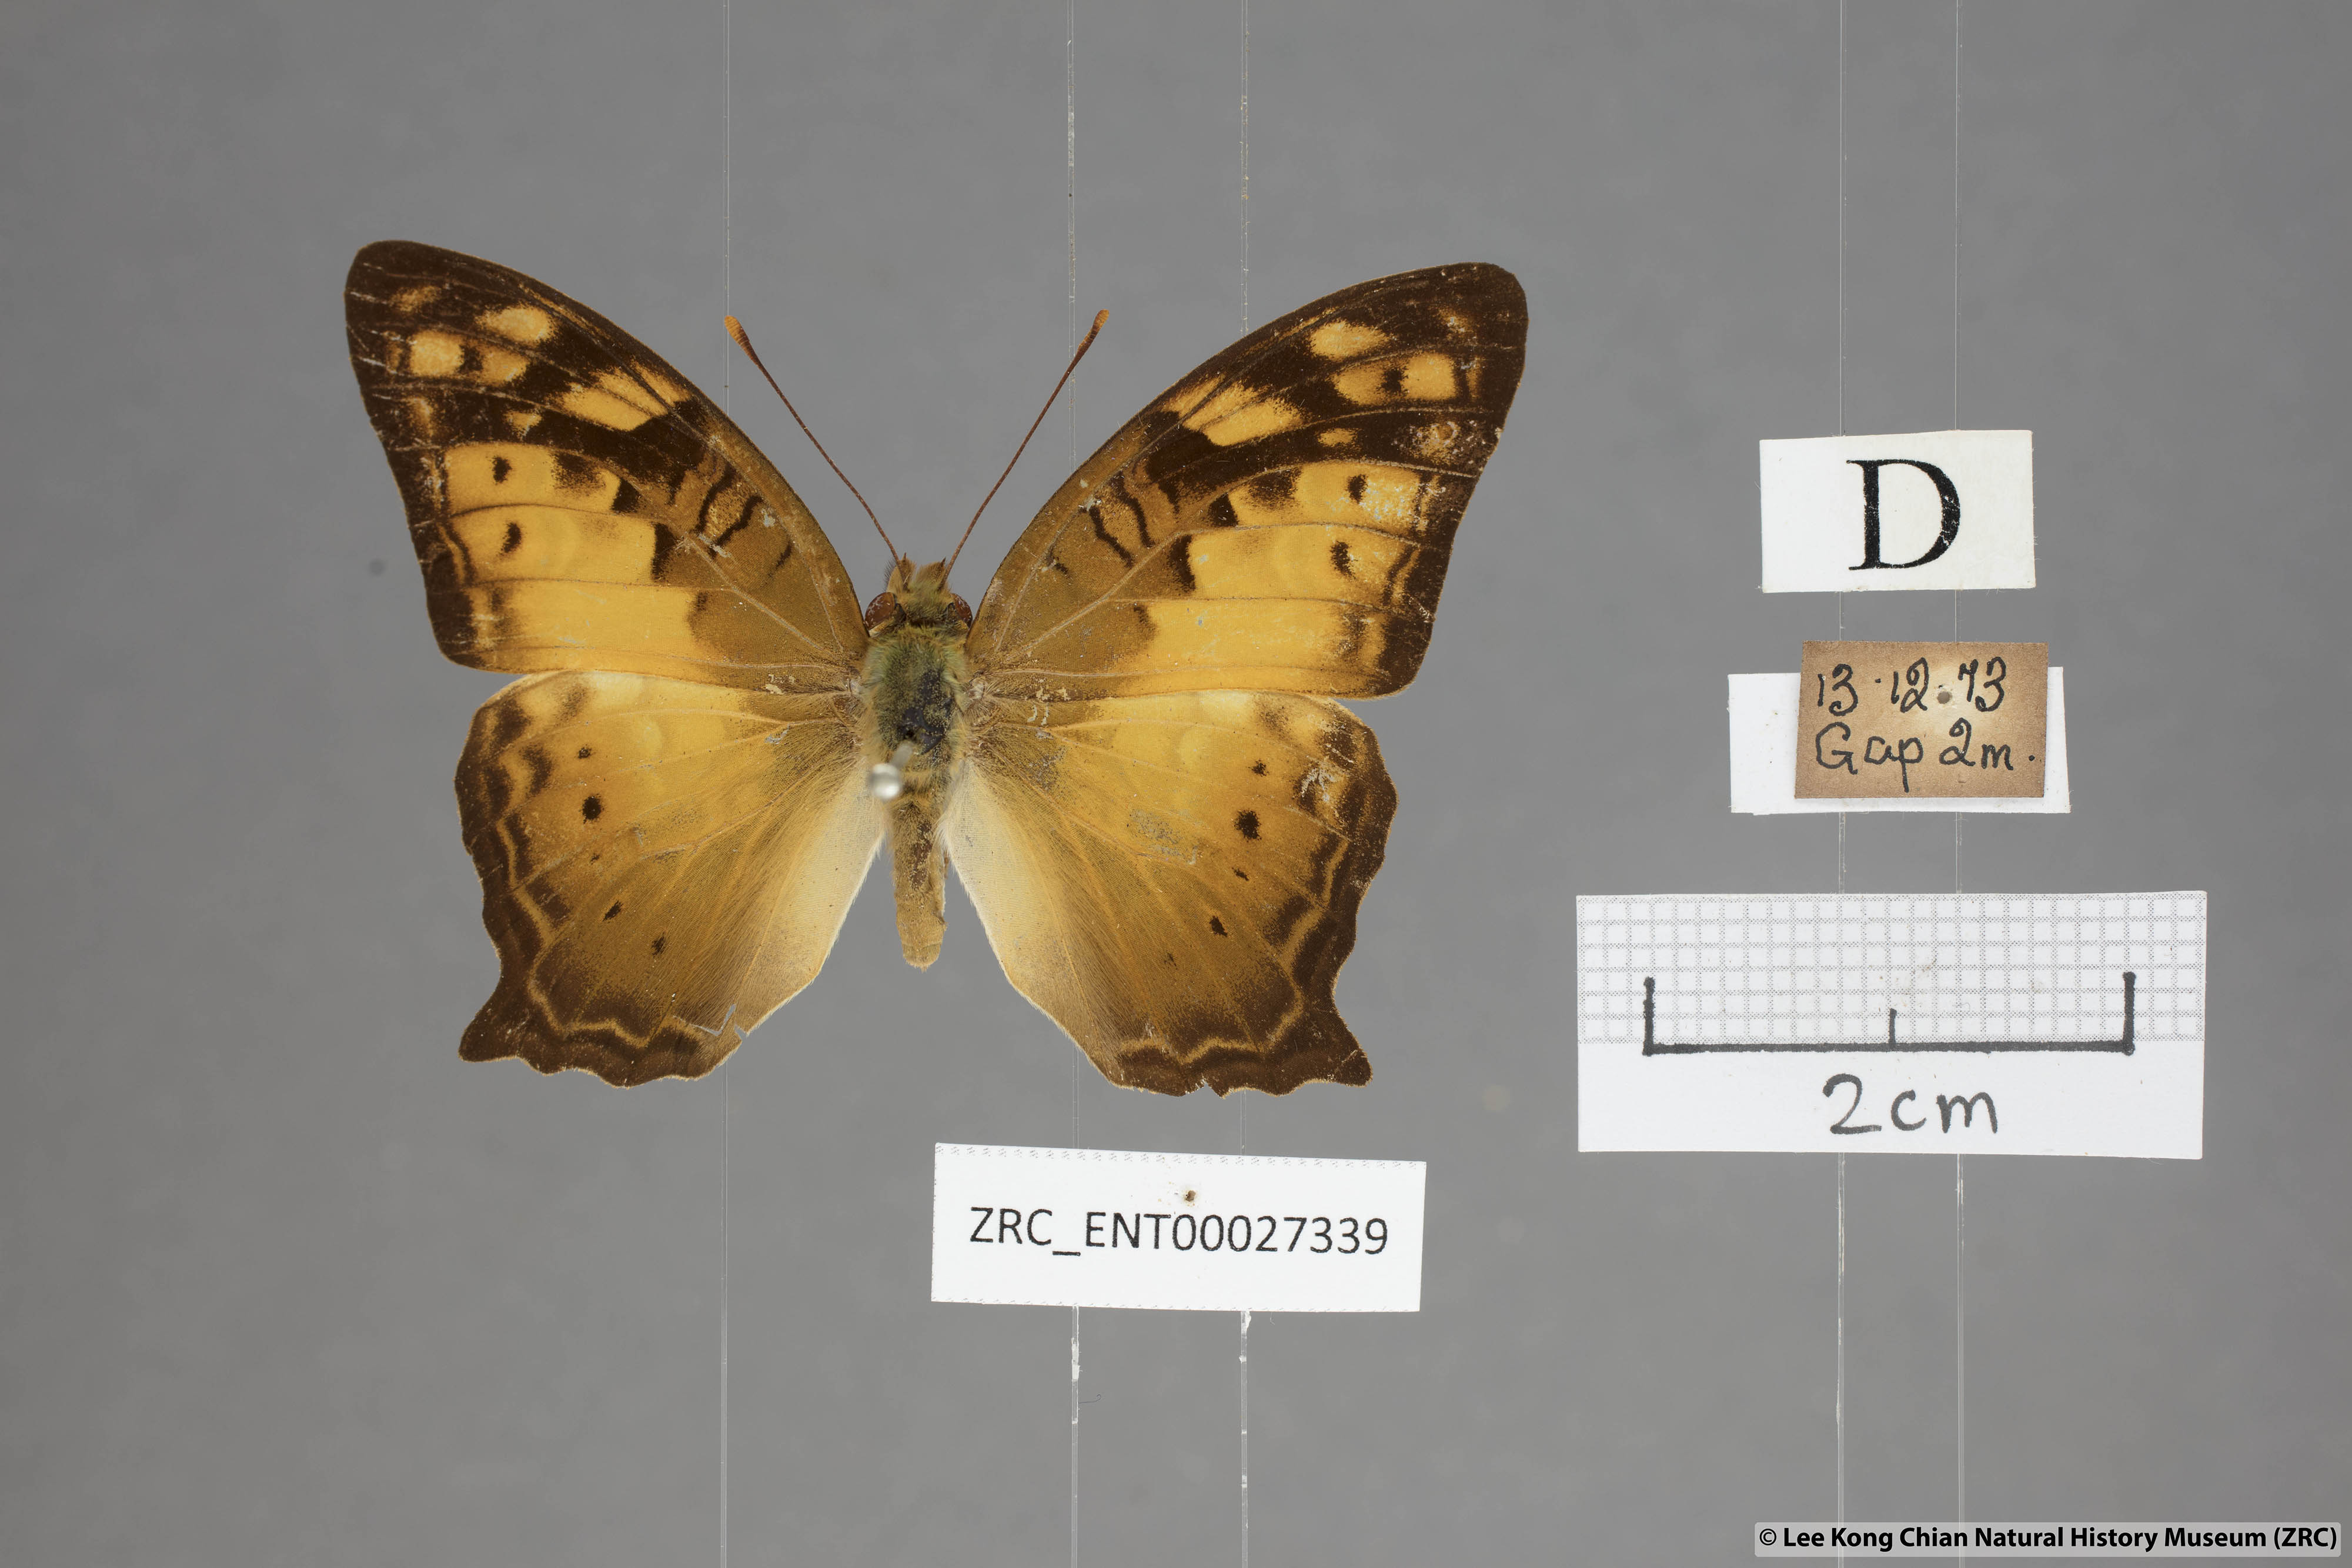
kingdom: Animalia
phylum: Arthropoda
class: Insecta
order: Lepidoptera
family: Nymphalidae
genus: Vagrans
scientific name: Vagrans egista
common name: Tailed rustic
